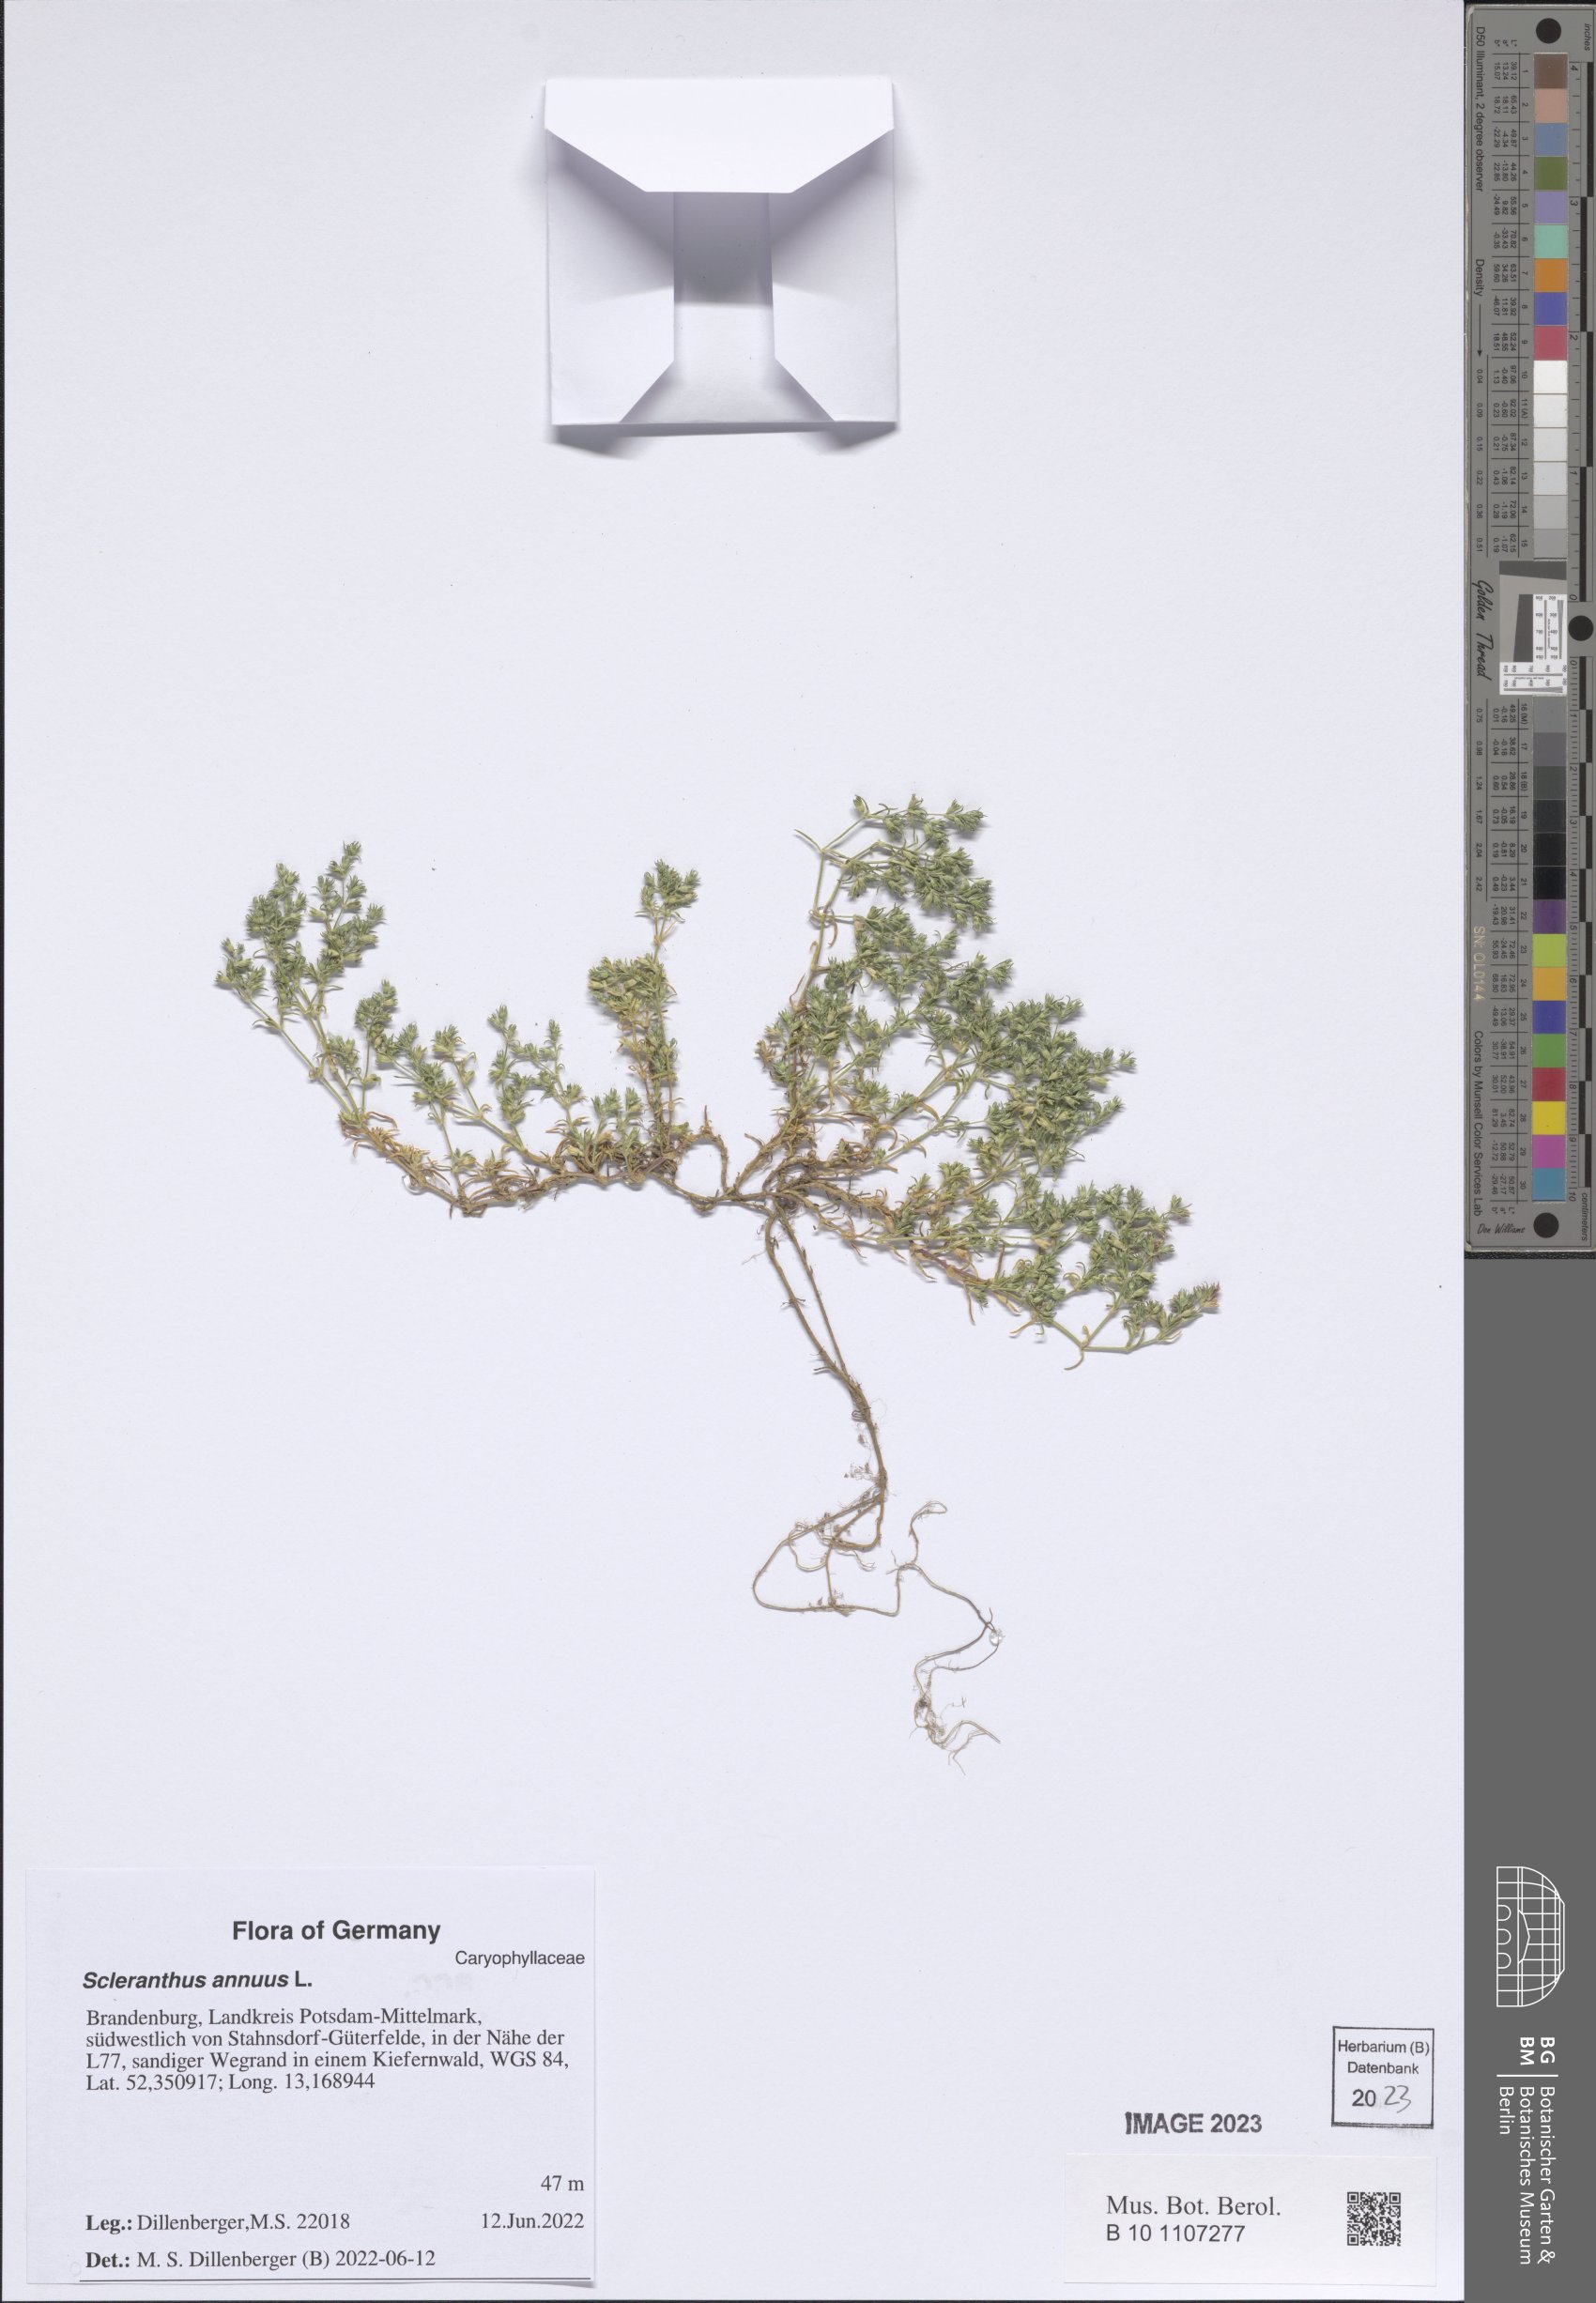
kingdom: Plantae
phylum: Tracheophyta
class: Magnoliopsida
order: Caryophyllales
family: Caryophyllaceae
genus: Scleranthus
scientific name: Scleranthus annuus
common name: Annual knawel
